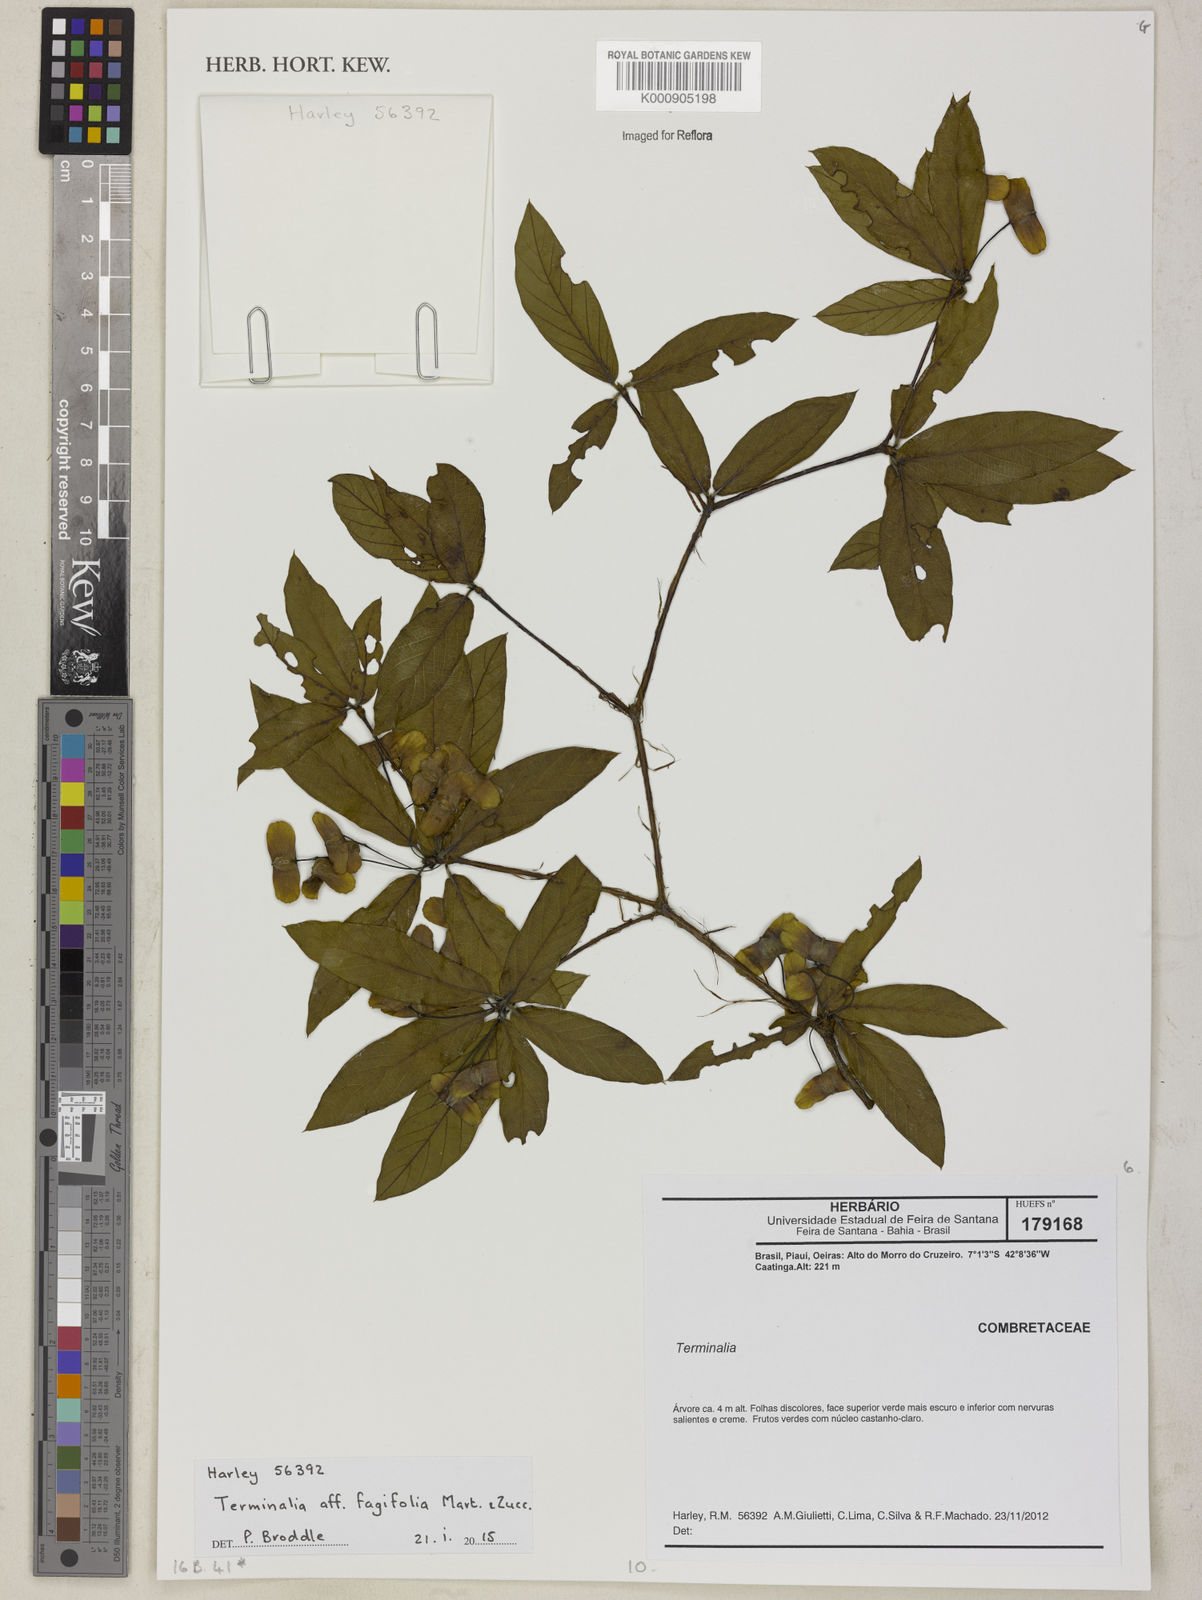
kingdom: Plantae
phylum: Tracheophyta
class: Magnoliopsida
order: Myrtales
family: Combretaceae
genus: Terminalia
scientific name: Terminalia fagifolia
